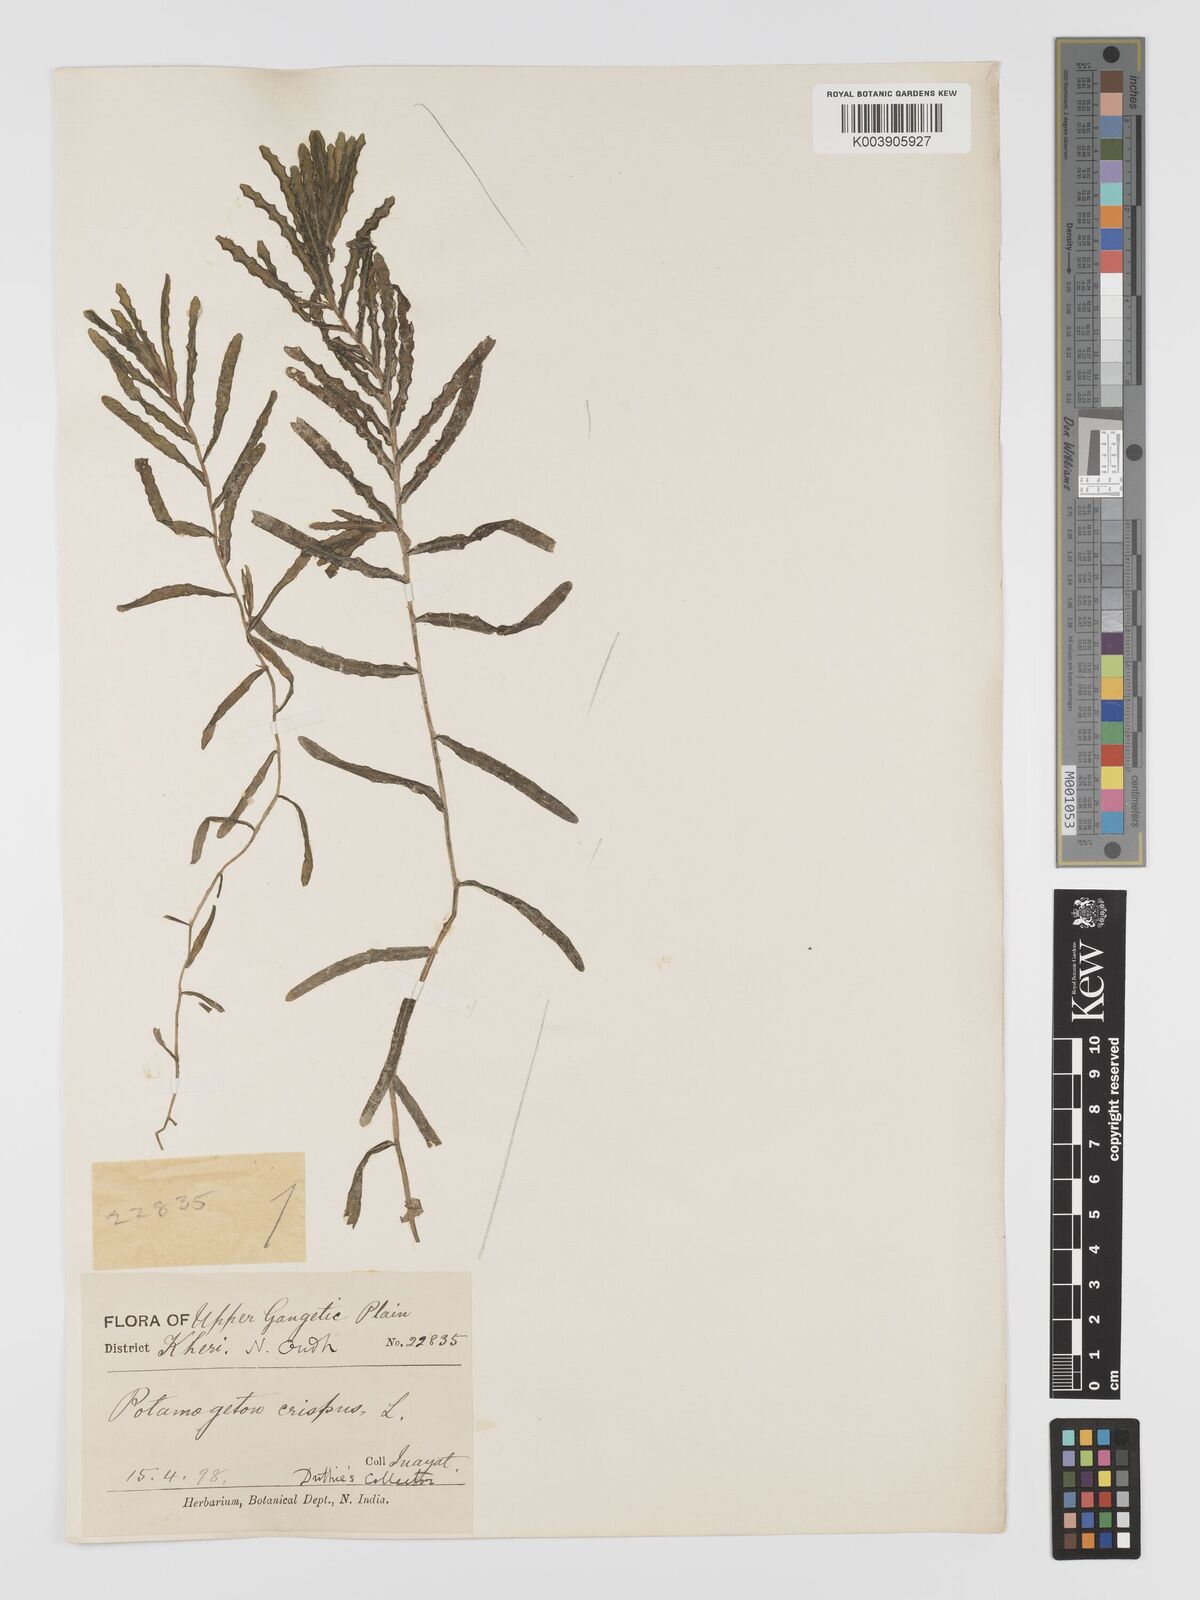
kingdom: Plantae
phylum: Tracheophyta
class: Liliopsida
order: Alismatales
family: Potamogetonaceae
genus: Potamogeton
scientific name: Potamogeton crispus
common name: Curled pondweed
